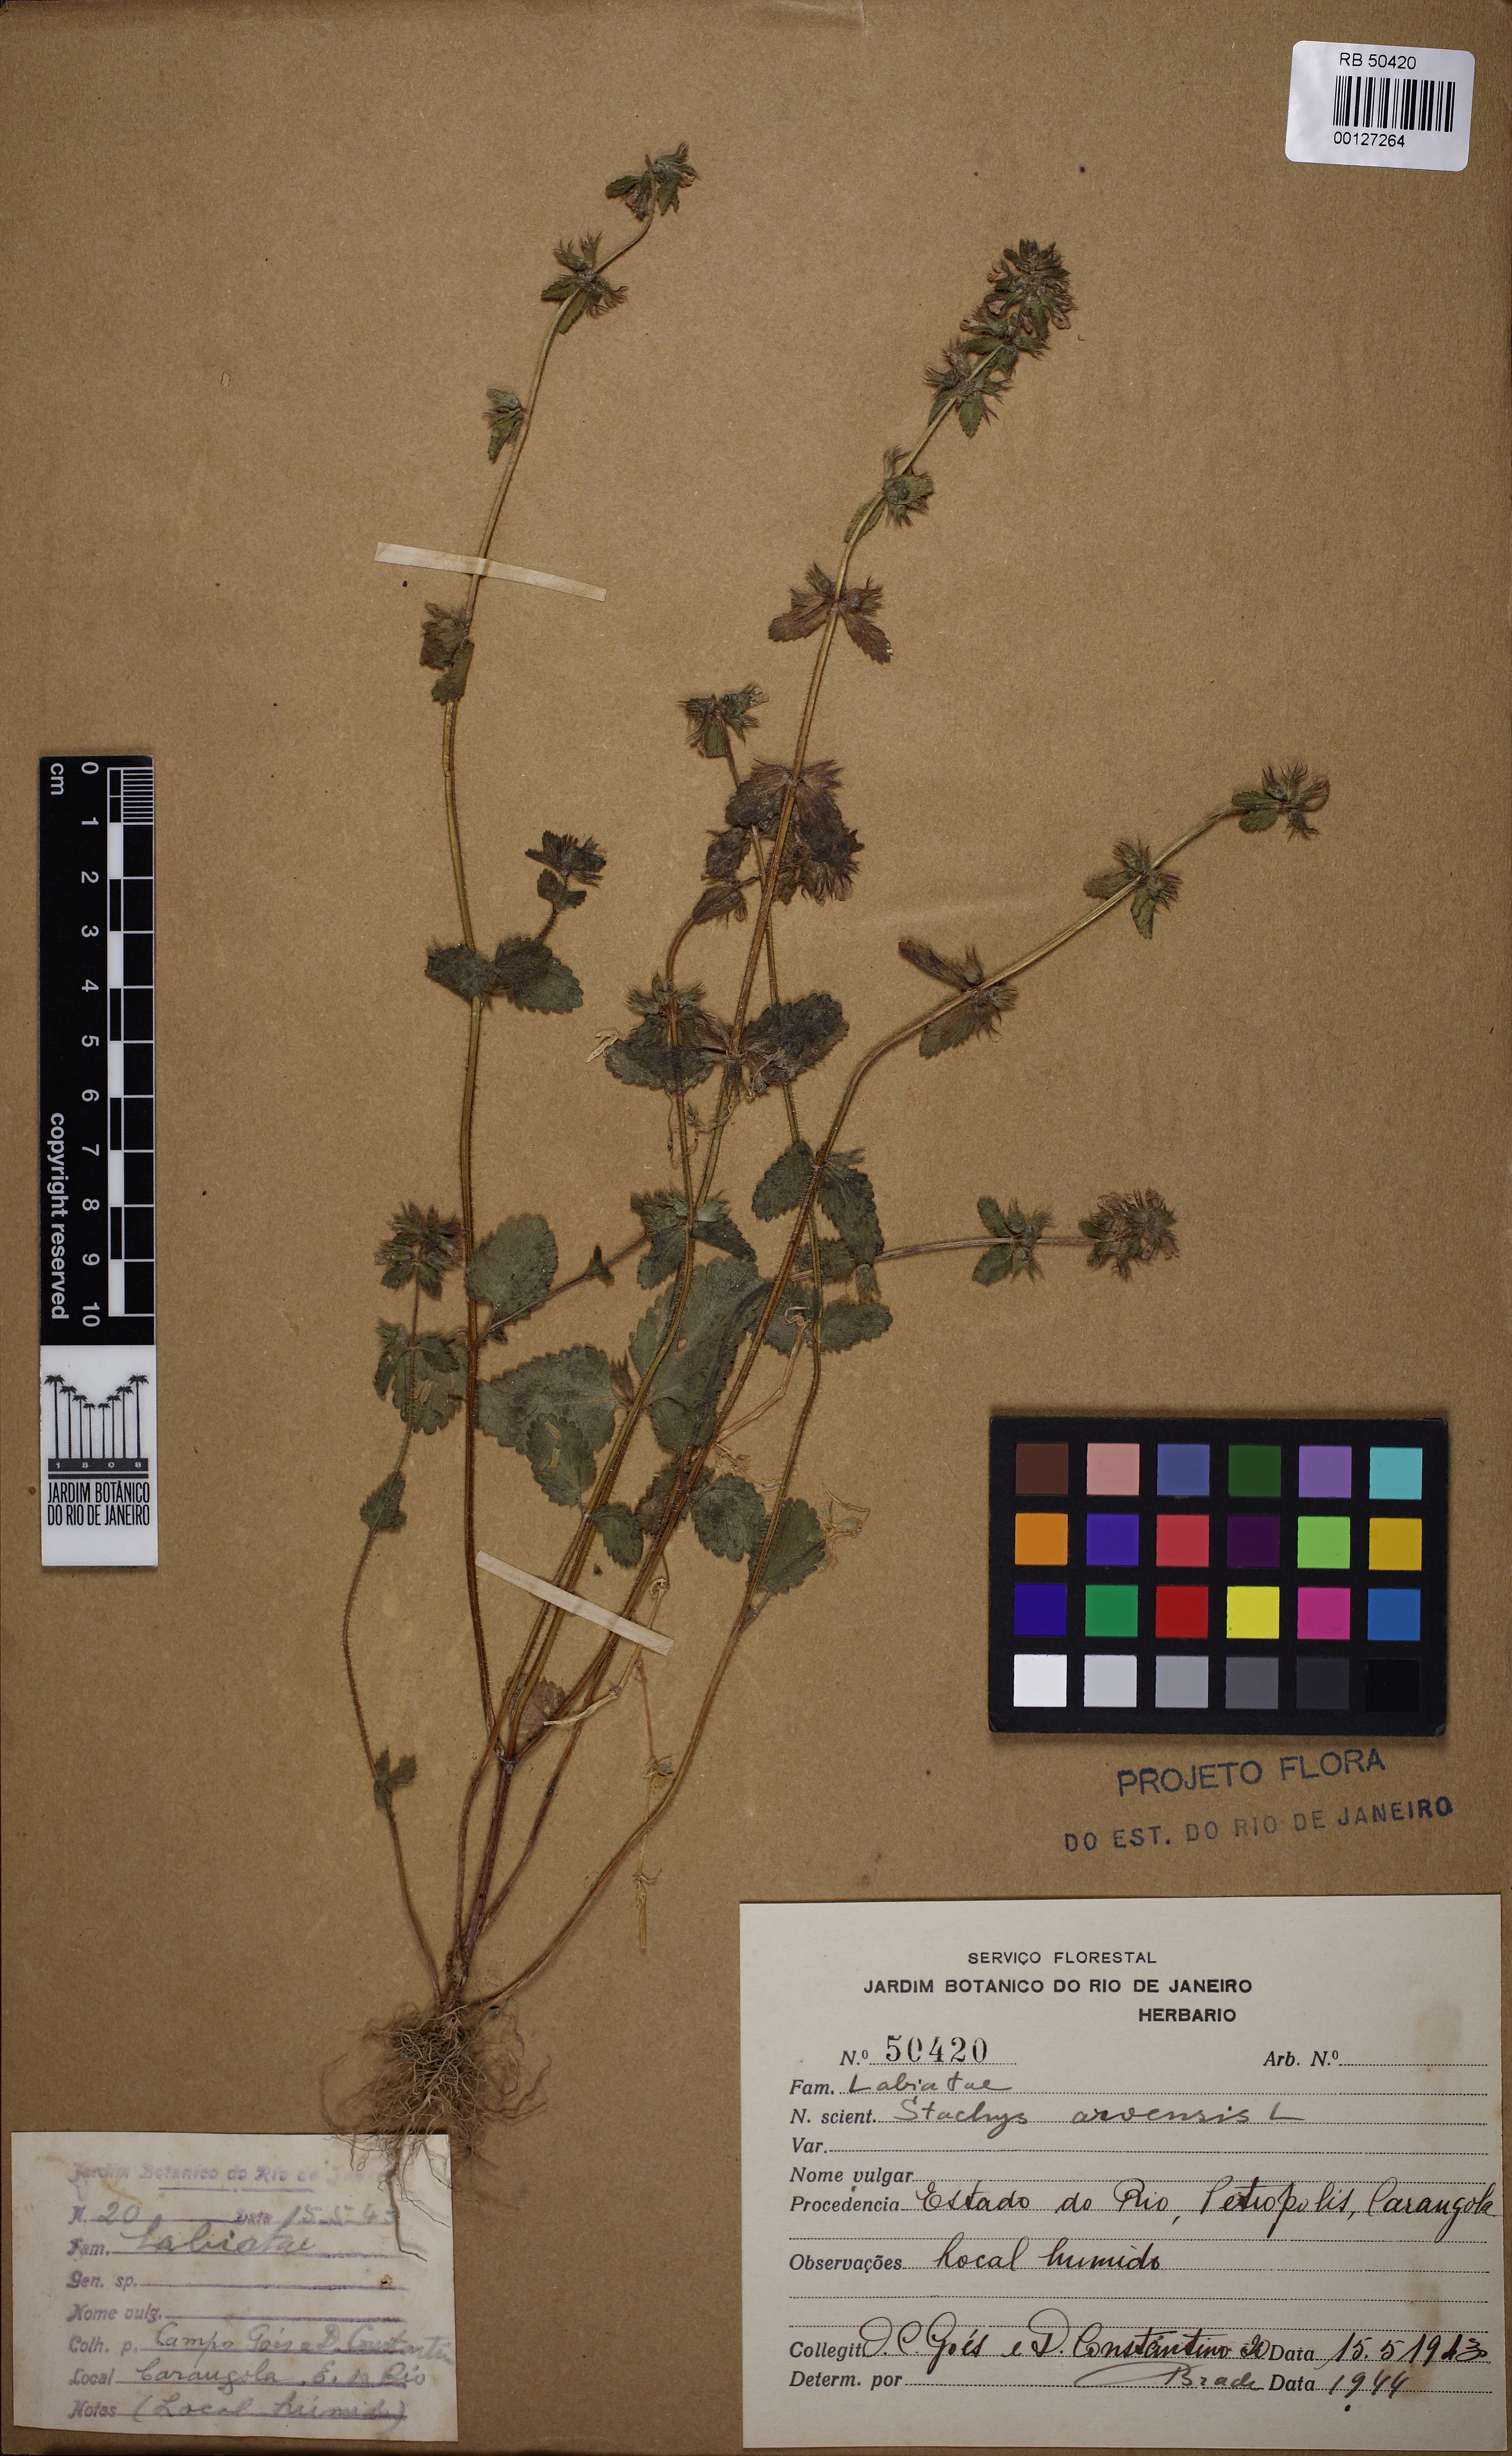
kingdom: Plantae
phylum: Tracheophyta
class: Magnoliopsida
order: Lamiales
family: Lamiaceae
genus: Stachys
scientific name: Stachys arvensis
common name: Field woundwort
